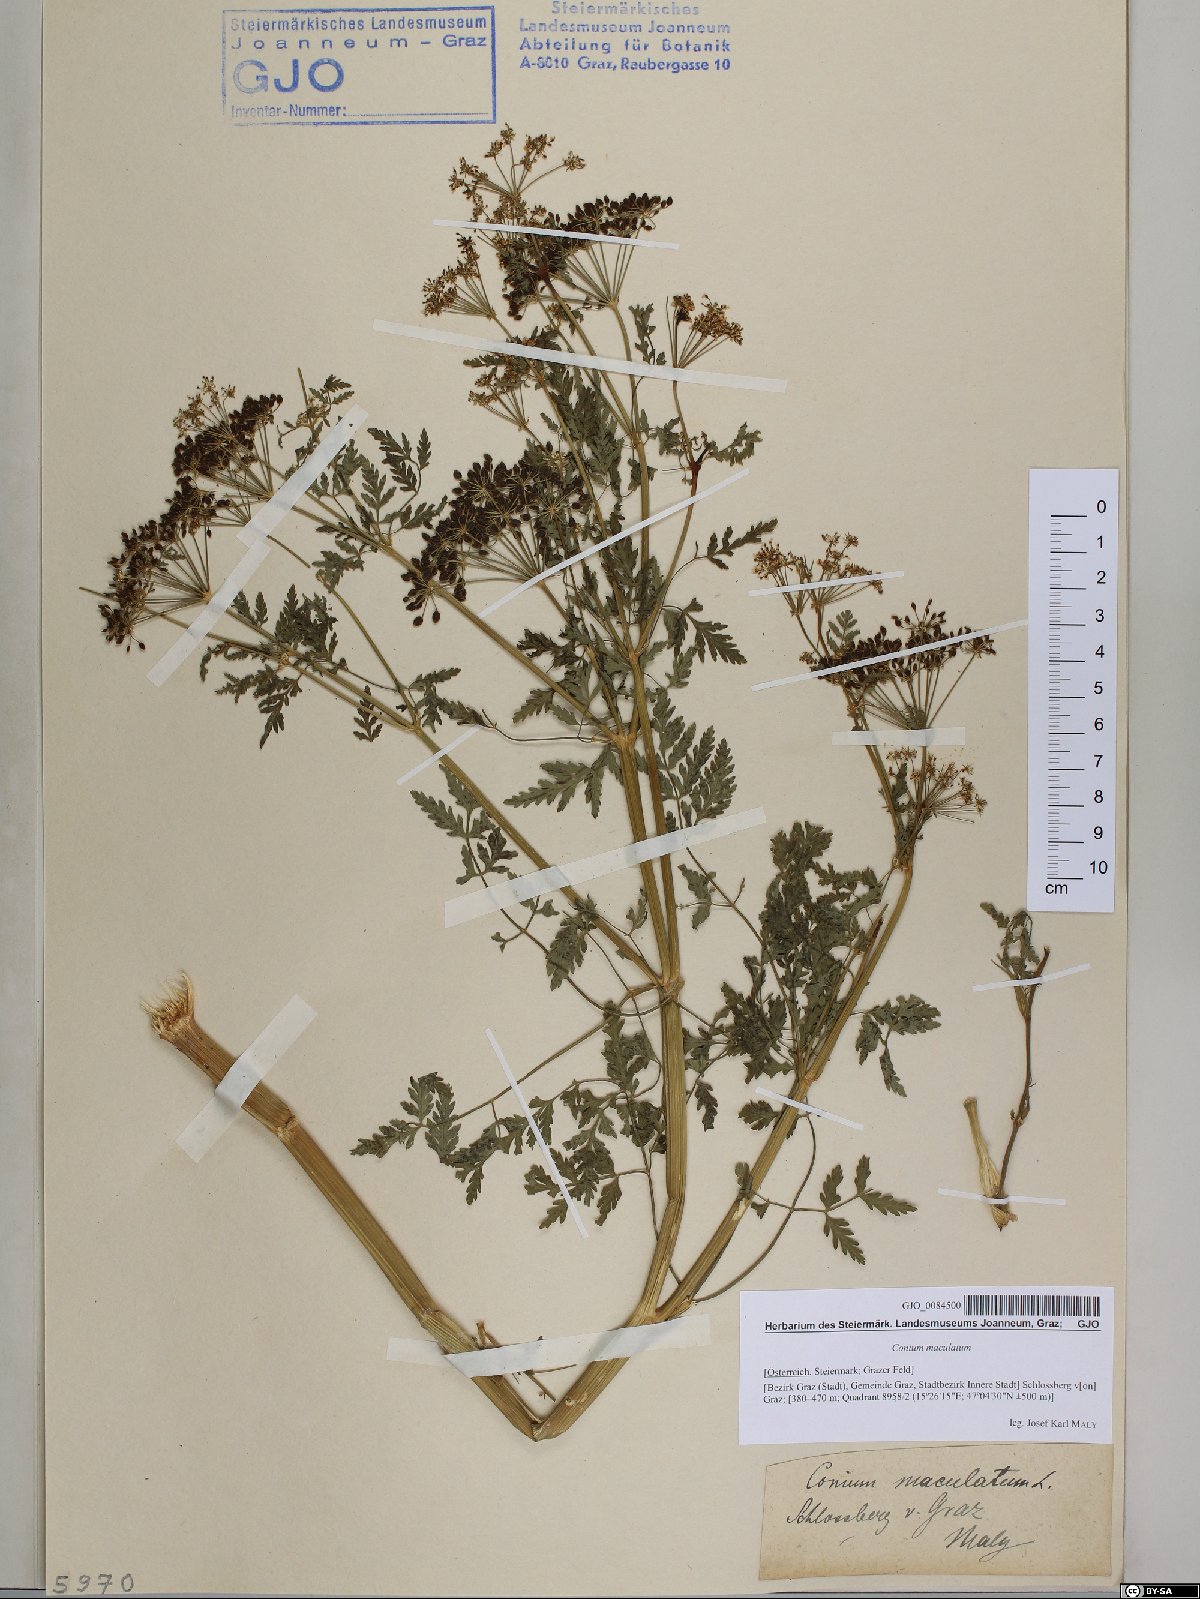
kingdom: Plantae
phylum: Tracheophyta
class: Magnoliopsida
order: Apiales
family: Apiaceae
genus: Conium
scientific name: Conium maculatum
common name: Hemlock
